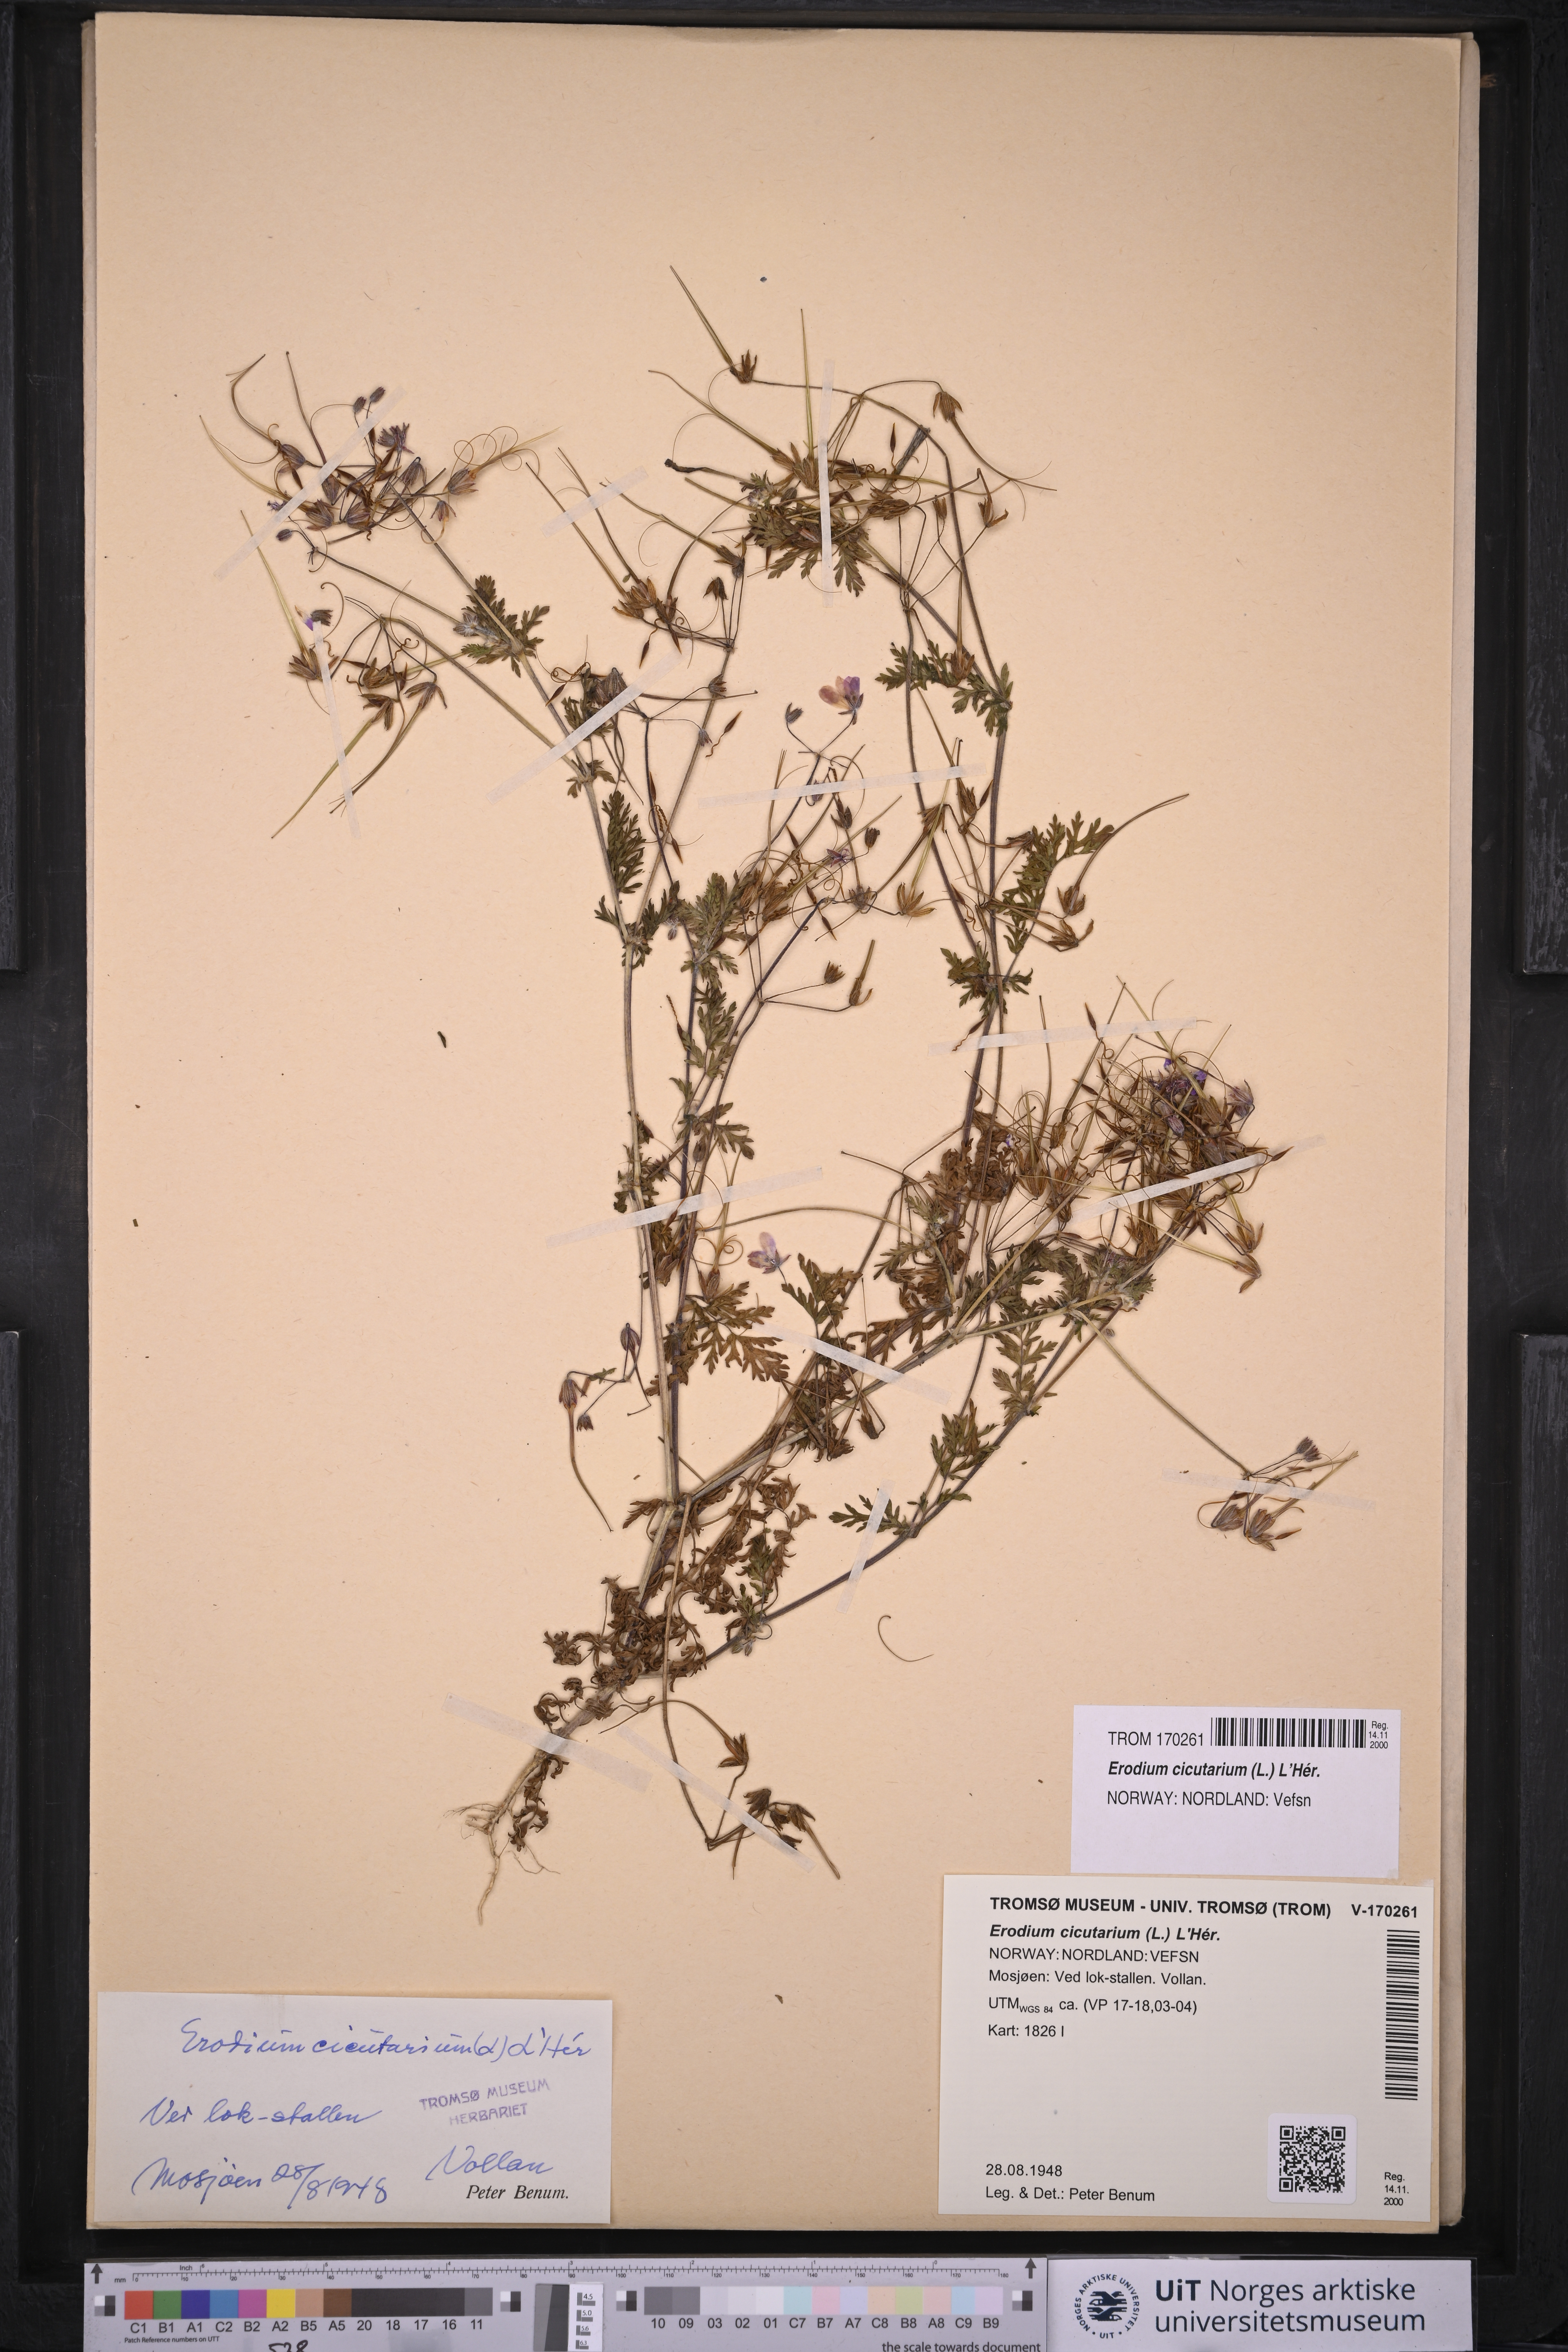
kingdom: Plantae
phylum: Tracheophyta
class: Magnoliopsida
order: Geraniales
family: Geraniaceae
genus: Erodium
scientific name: Erodium cicutarium
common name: Common stork's-bill
